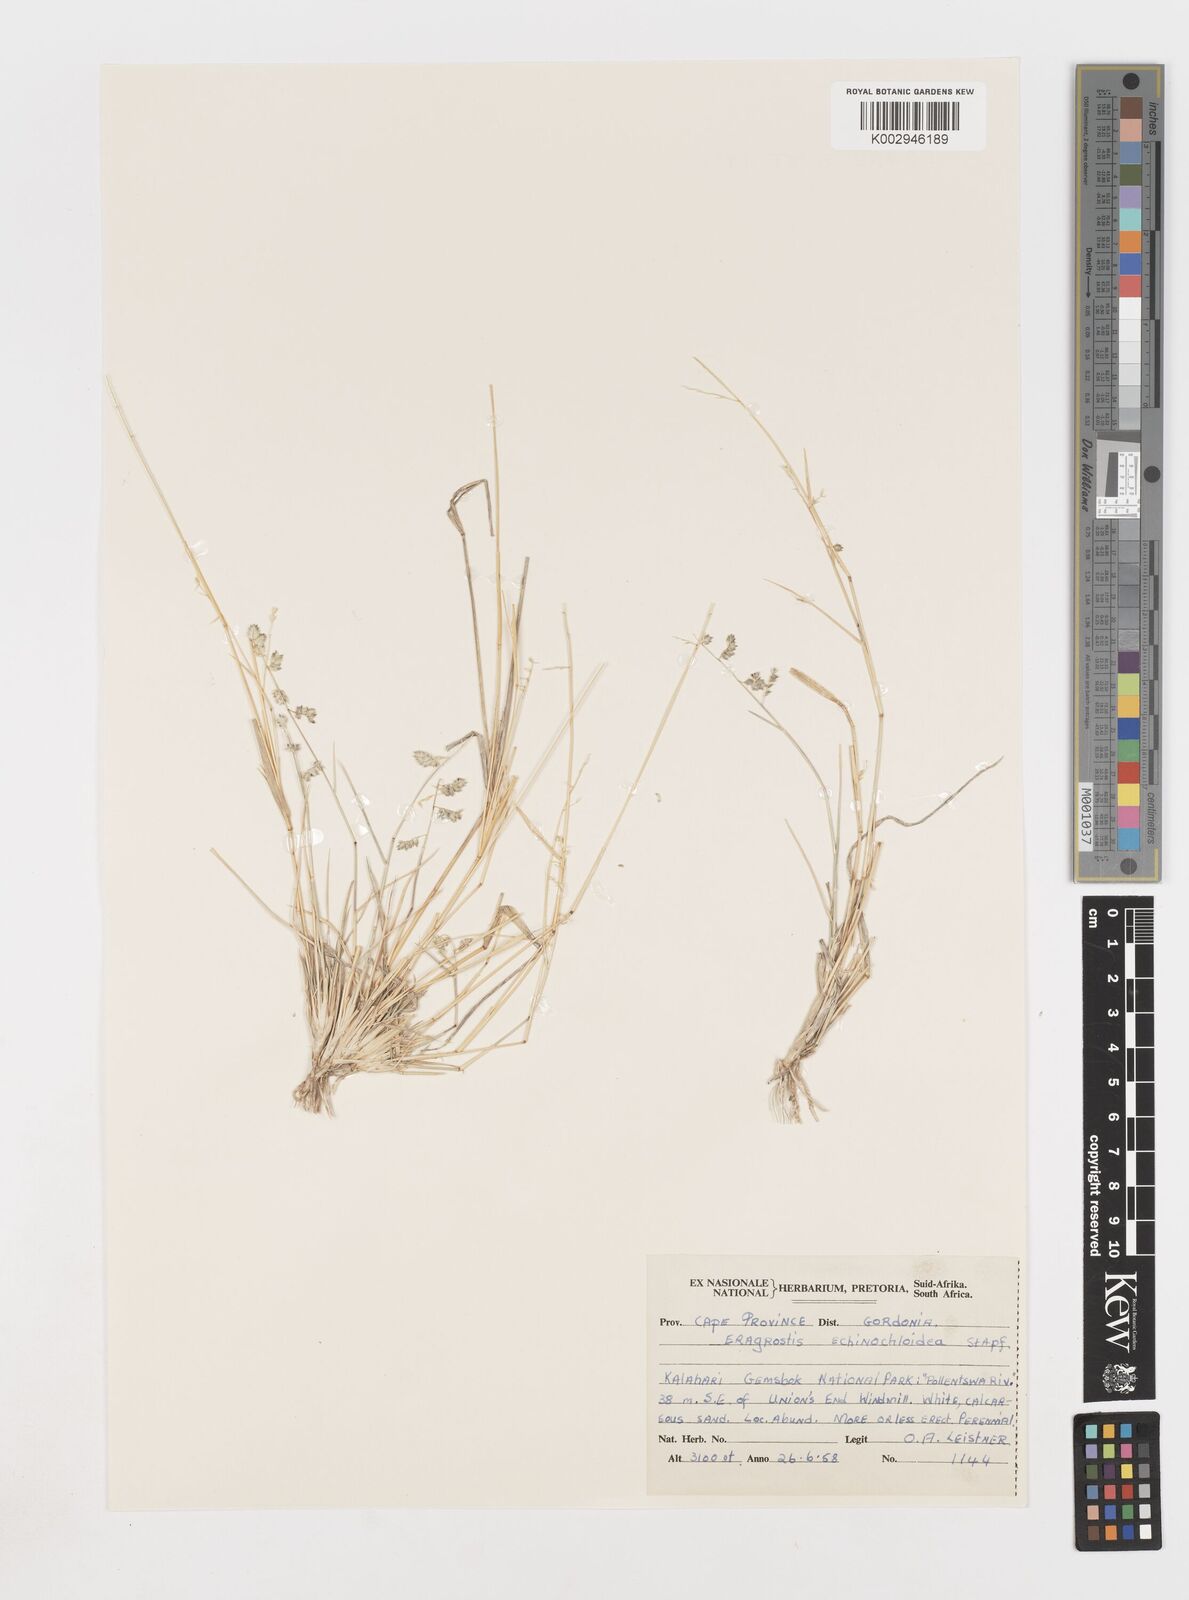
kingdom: Plantae
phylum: Tracheophyta
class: Liliopsida
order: Poales
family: Poaceae
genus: Eragrostis
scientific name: Eragrostis echinochloidea
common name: African lovegrass
